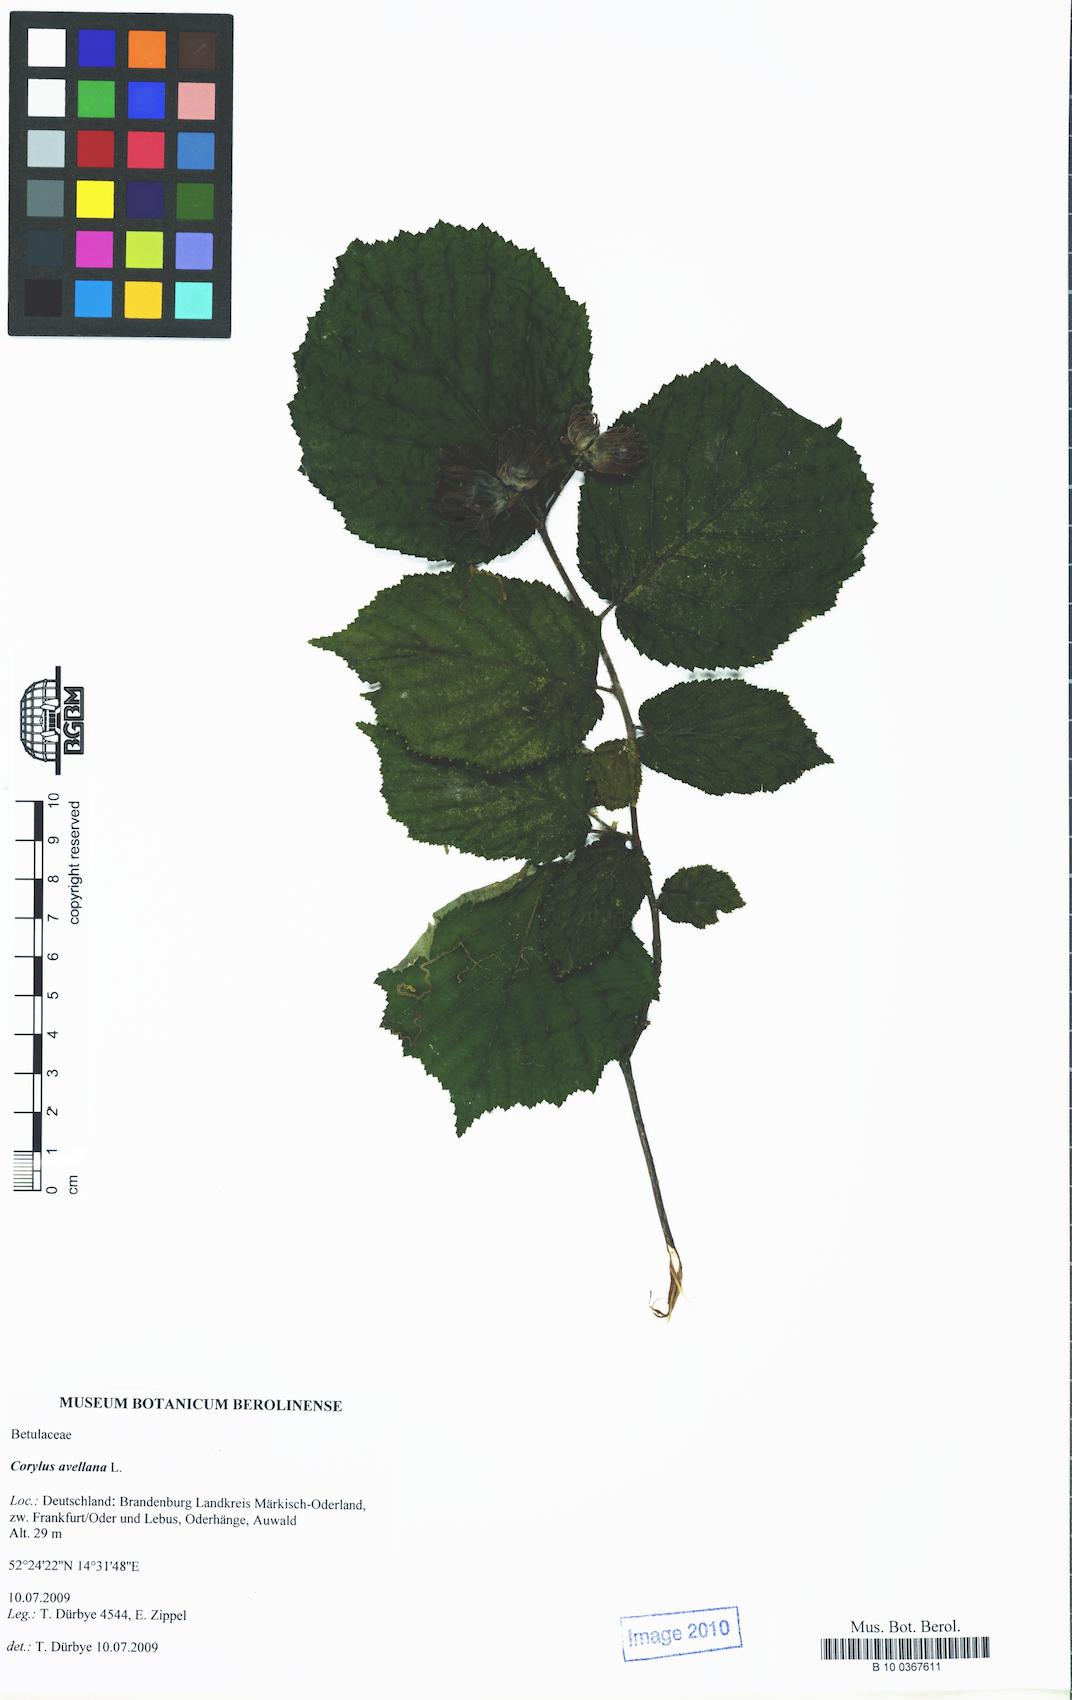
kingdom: Plantae
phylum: Tracheophyta
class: Magnoliopsida
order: Fagales
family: Betulaceae
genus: Corylus
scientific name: Corylus avellana
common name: European hazel
